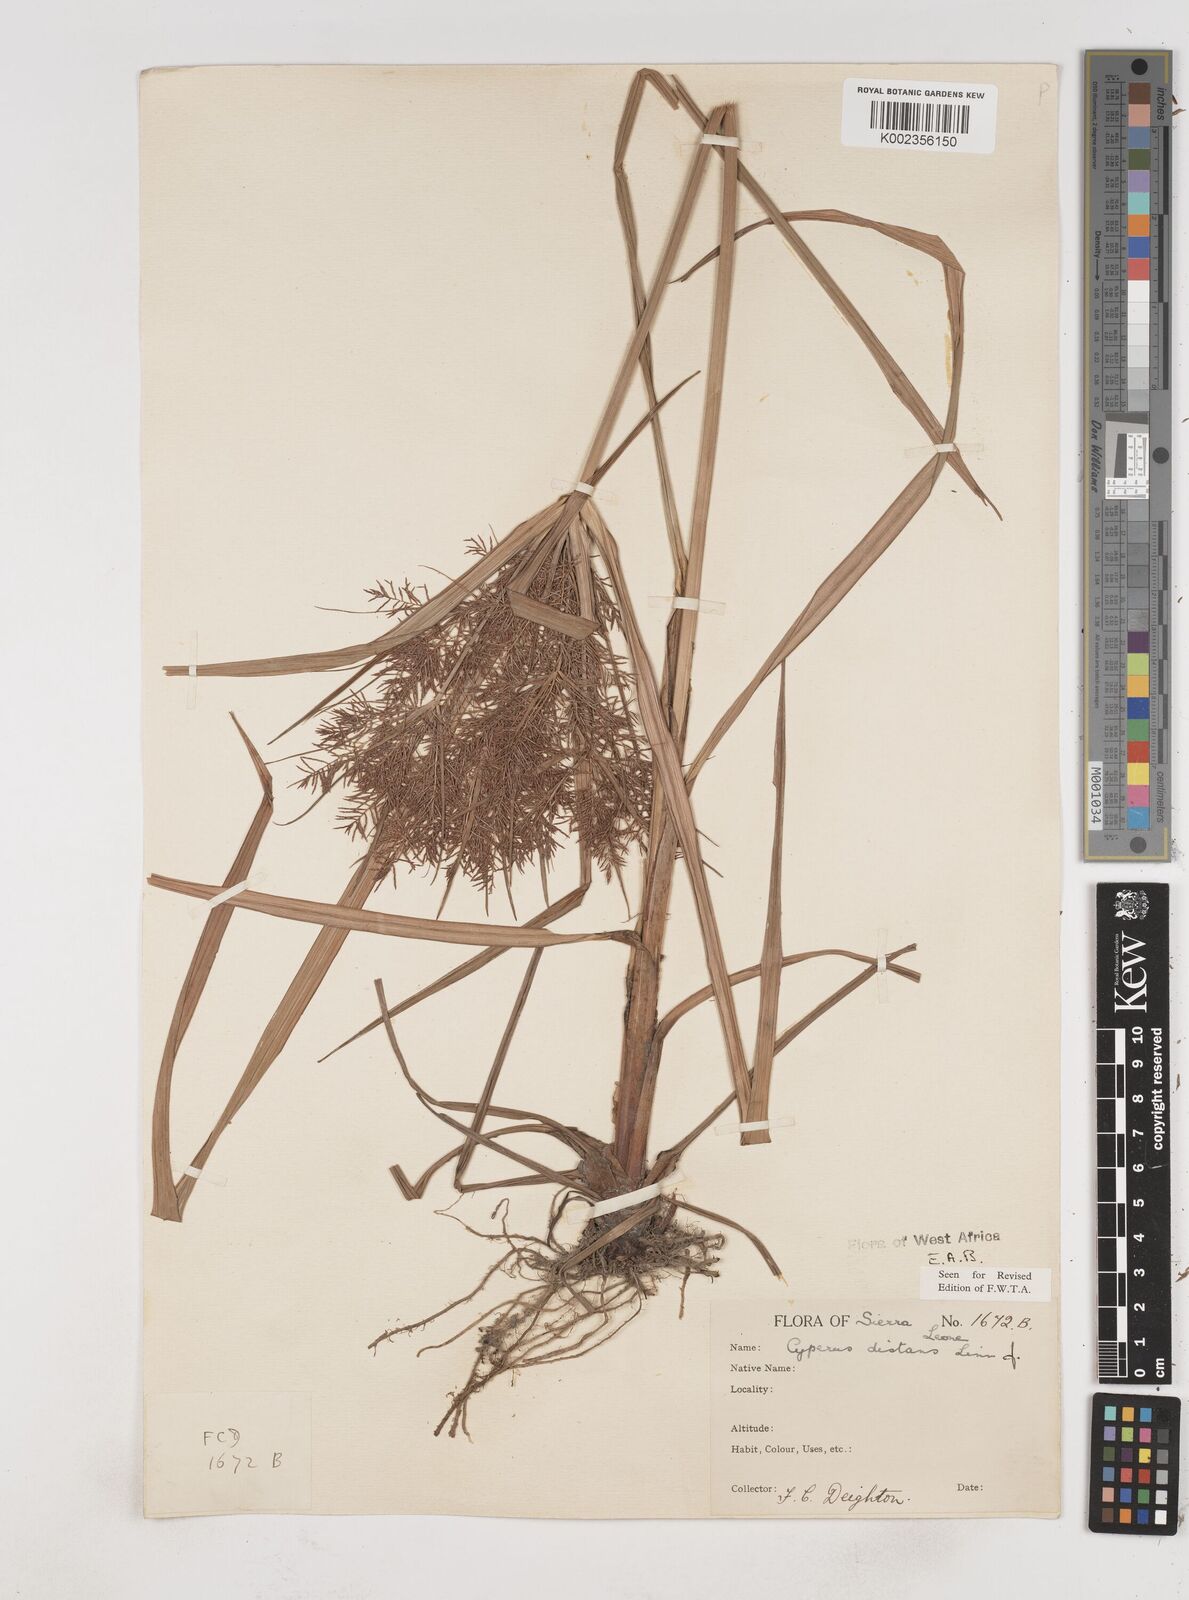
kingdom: Plantae
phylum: Tracheophyta
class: Liliopsida
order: Poales
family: Cyperaceae
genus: Cyperus
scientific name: Cyperus distans
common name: Slender cyperus
